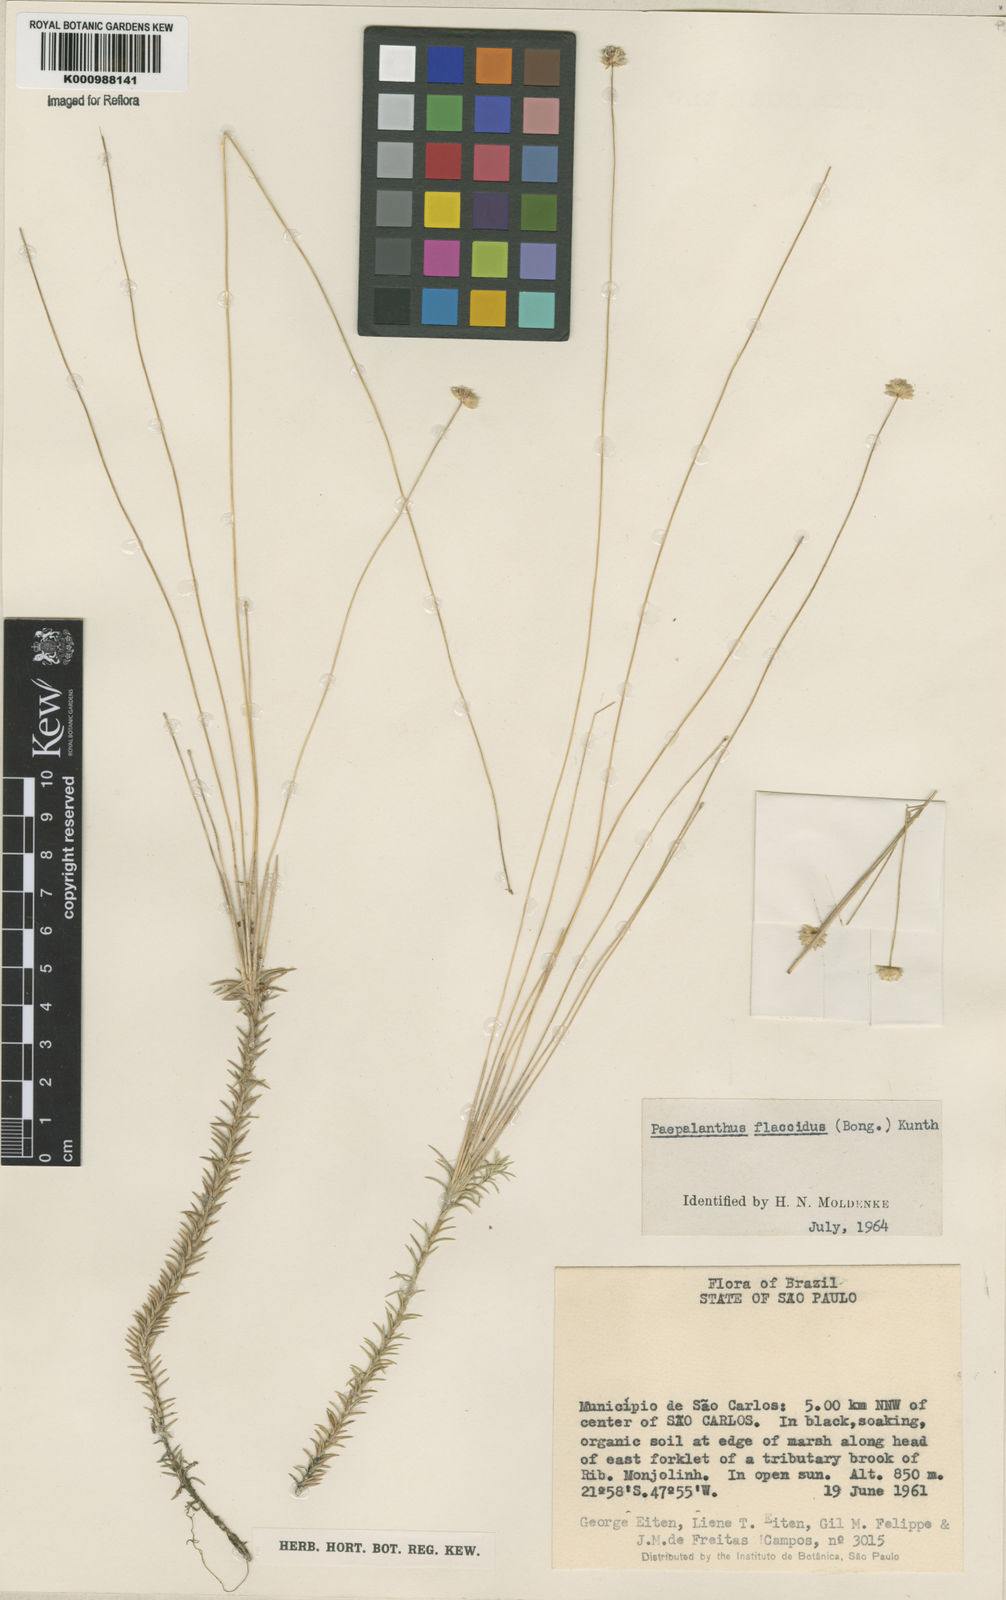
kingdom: Plantae
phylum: Tracheophyta
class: Liliopsida
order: Poales
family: Eriocaulaceae
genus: Paepalanthus
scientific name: Paepalanthus flaccidus
